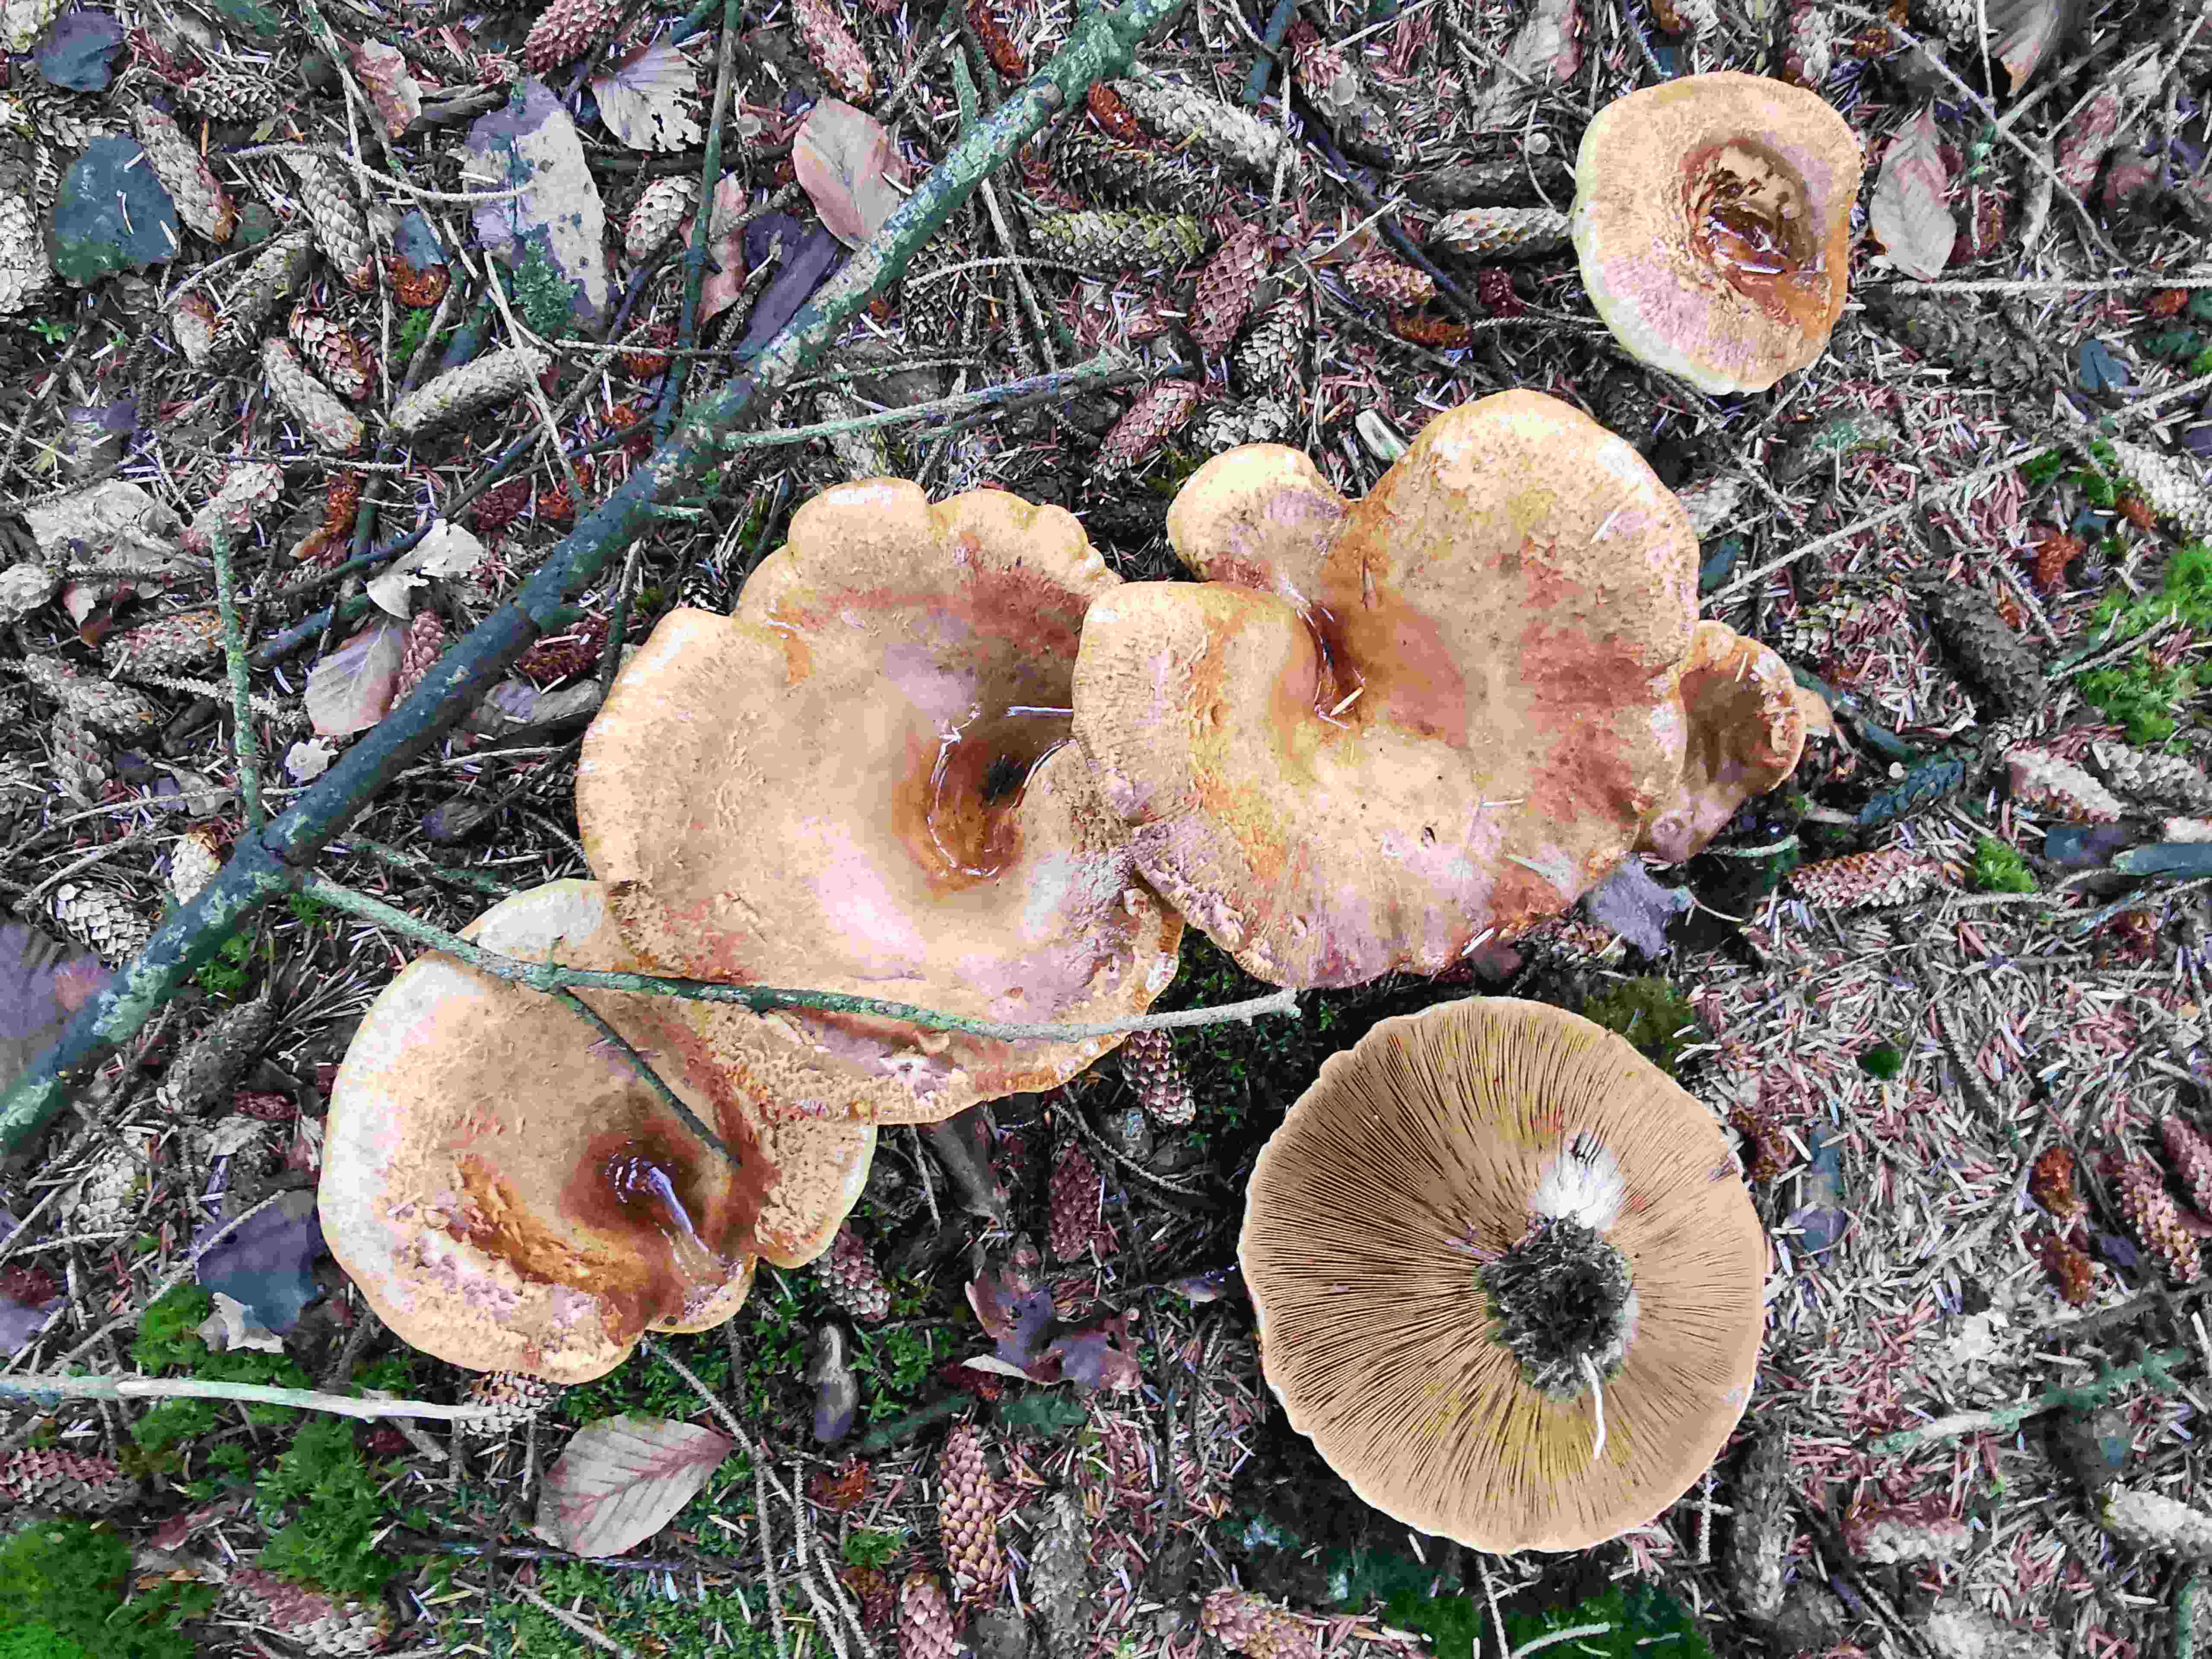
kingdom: Fungi
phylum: Basidiomycota
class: Agaricomycetes
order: Boletales
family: Paxillaceae
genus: Paxillus
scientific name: Paxillus involutus
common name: almindelig netbladhat
